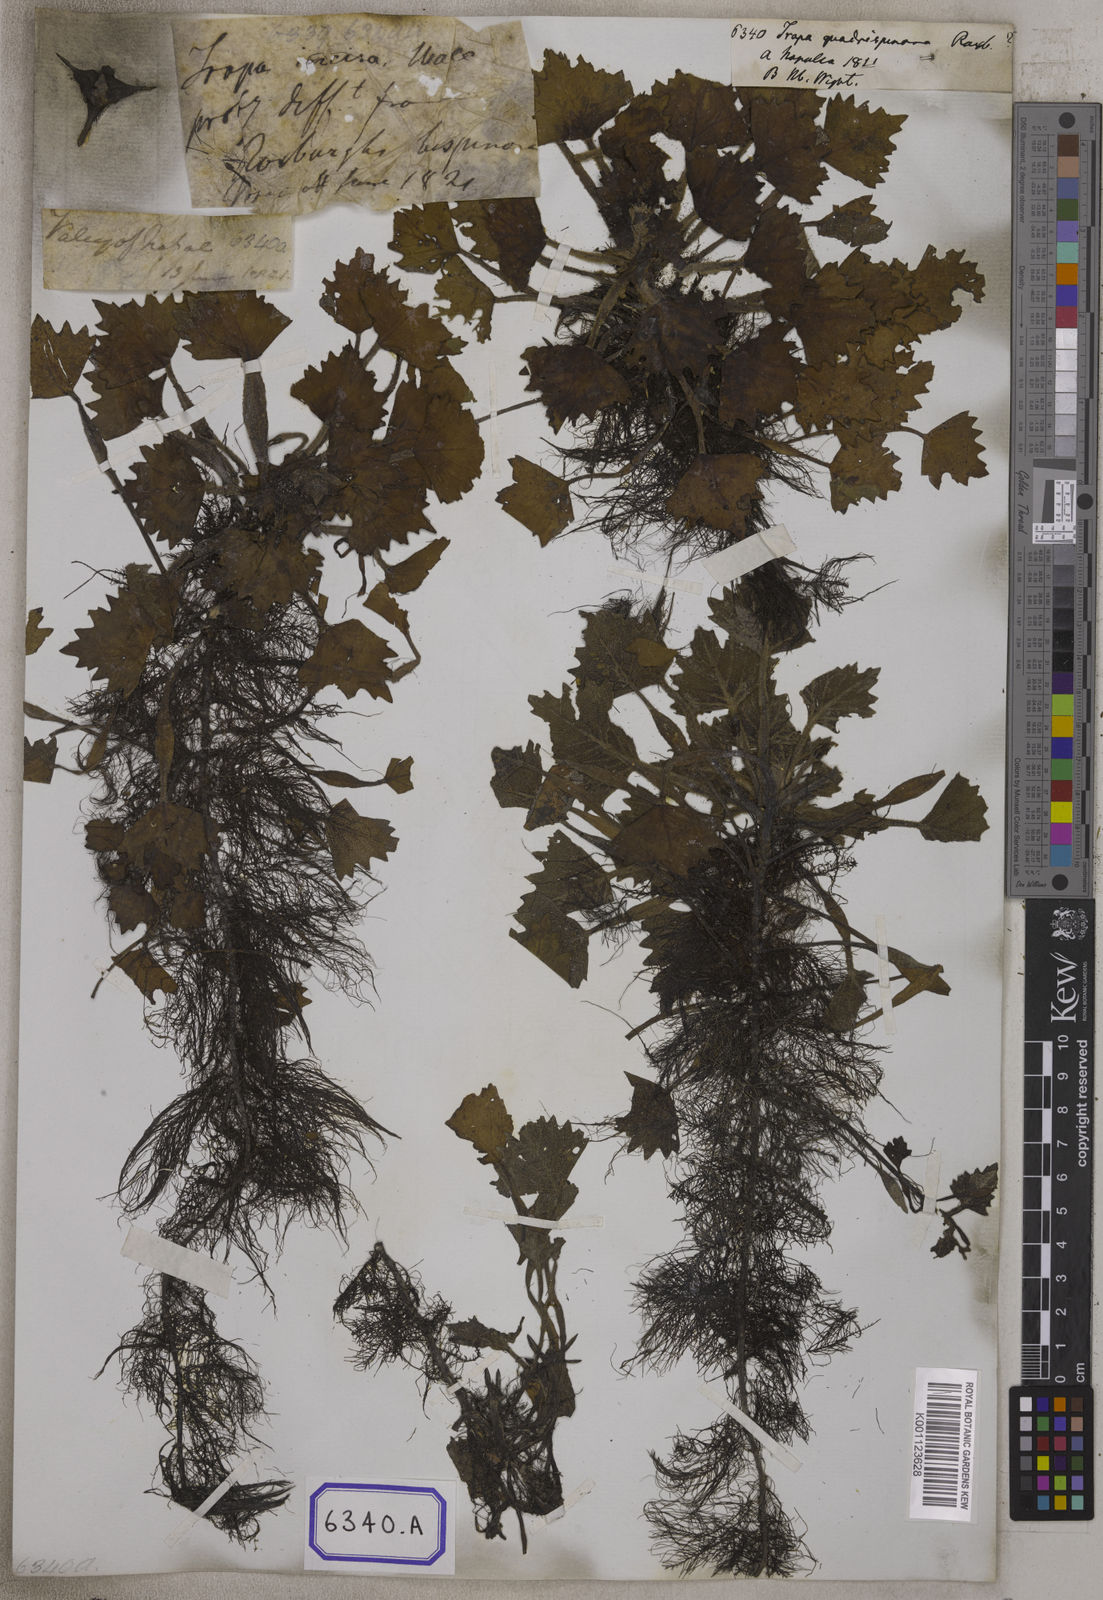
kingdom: Plantae
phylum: Tracheophyta
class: Magnoliopsida
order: Myrtales
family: Lythraceae
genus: Trapa
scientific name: Trapa
